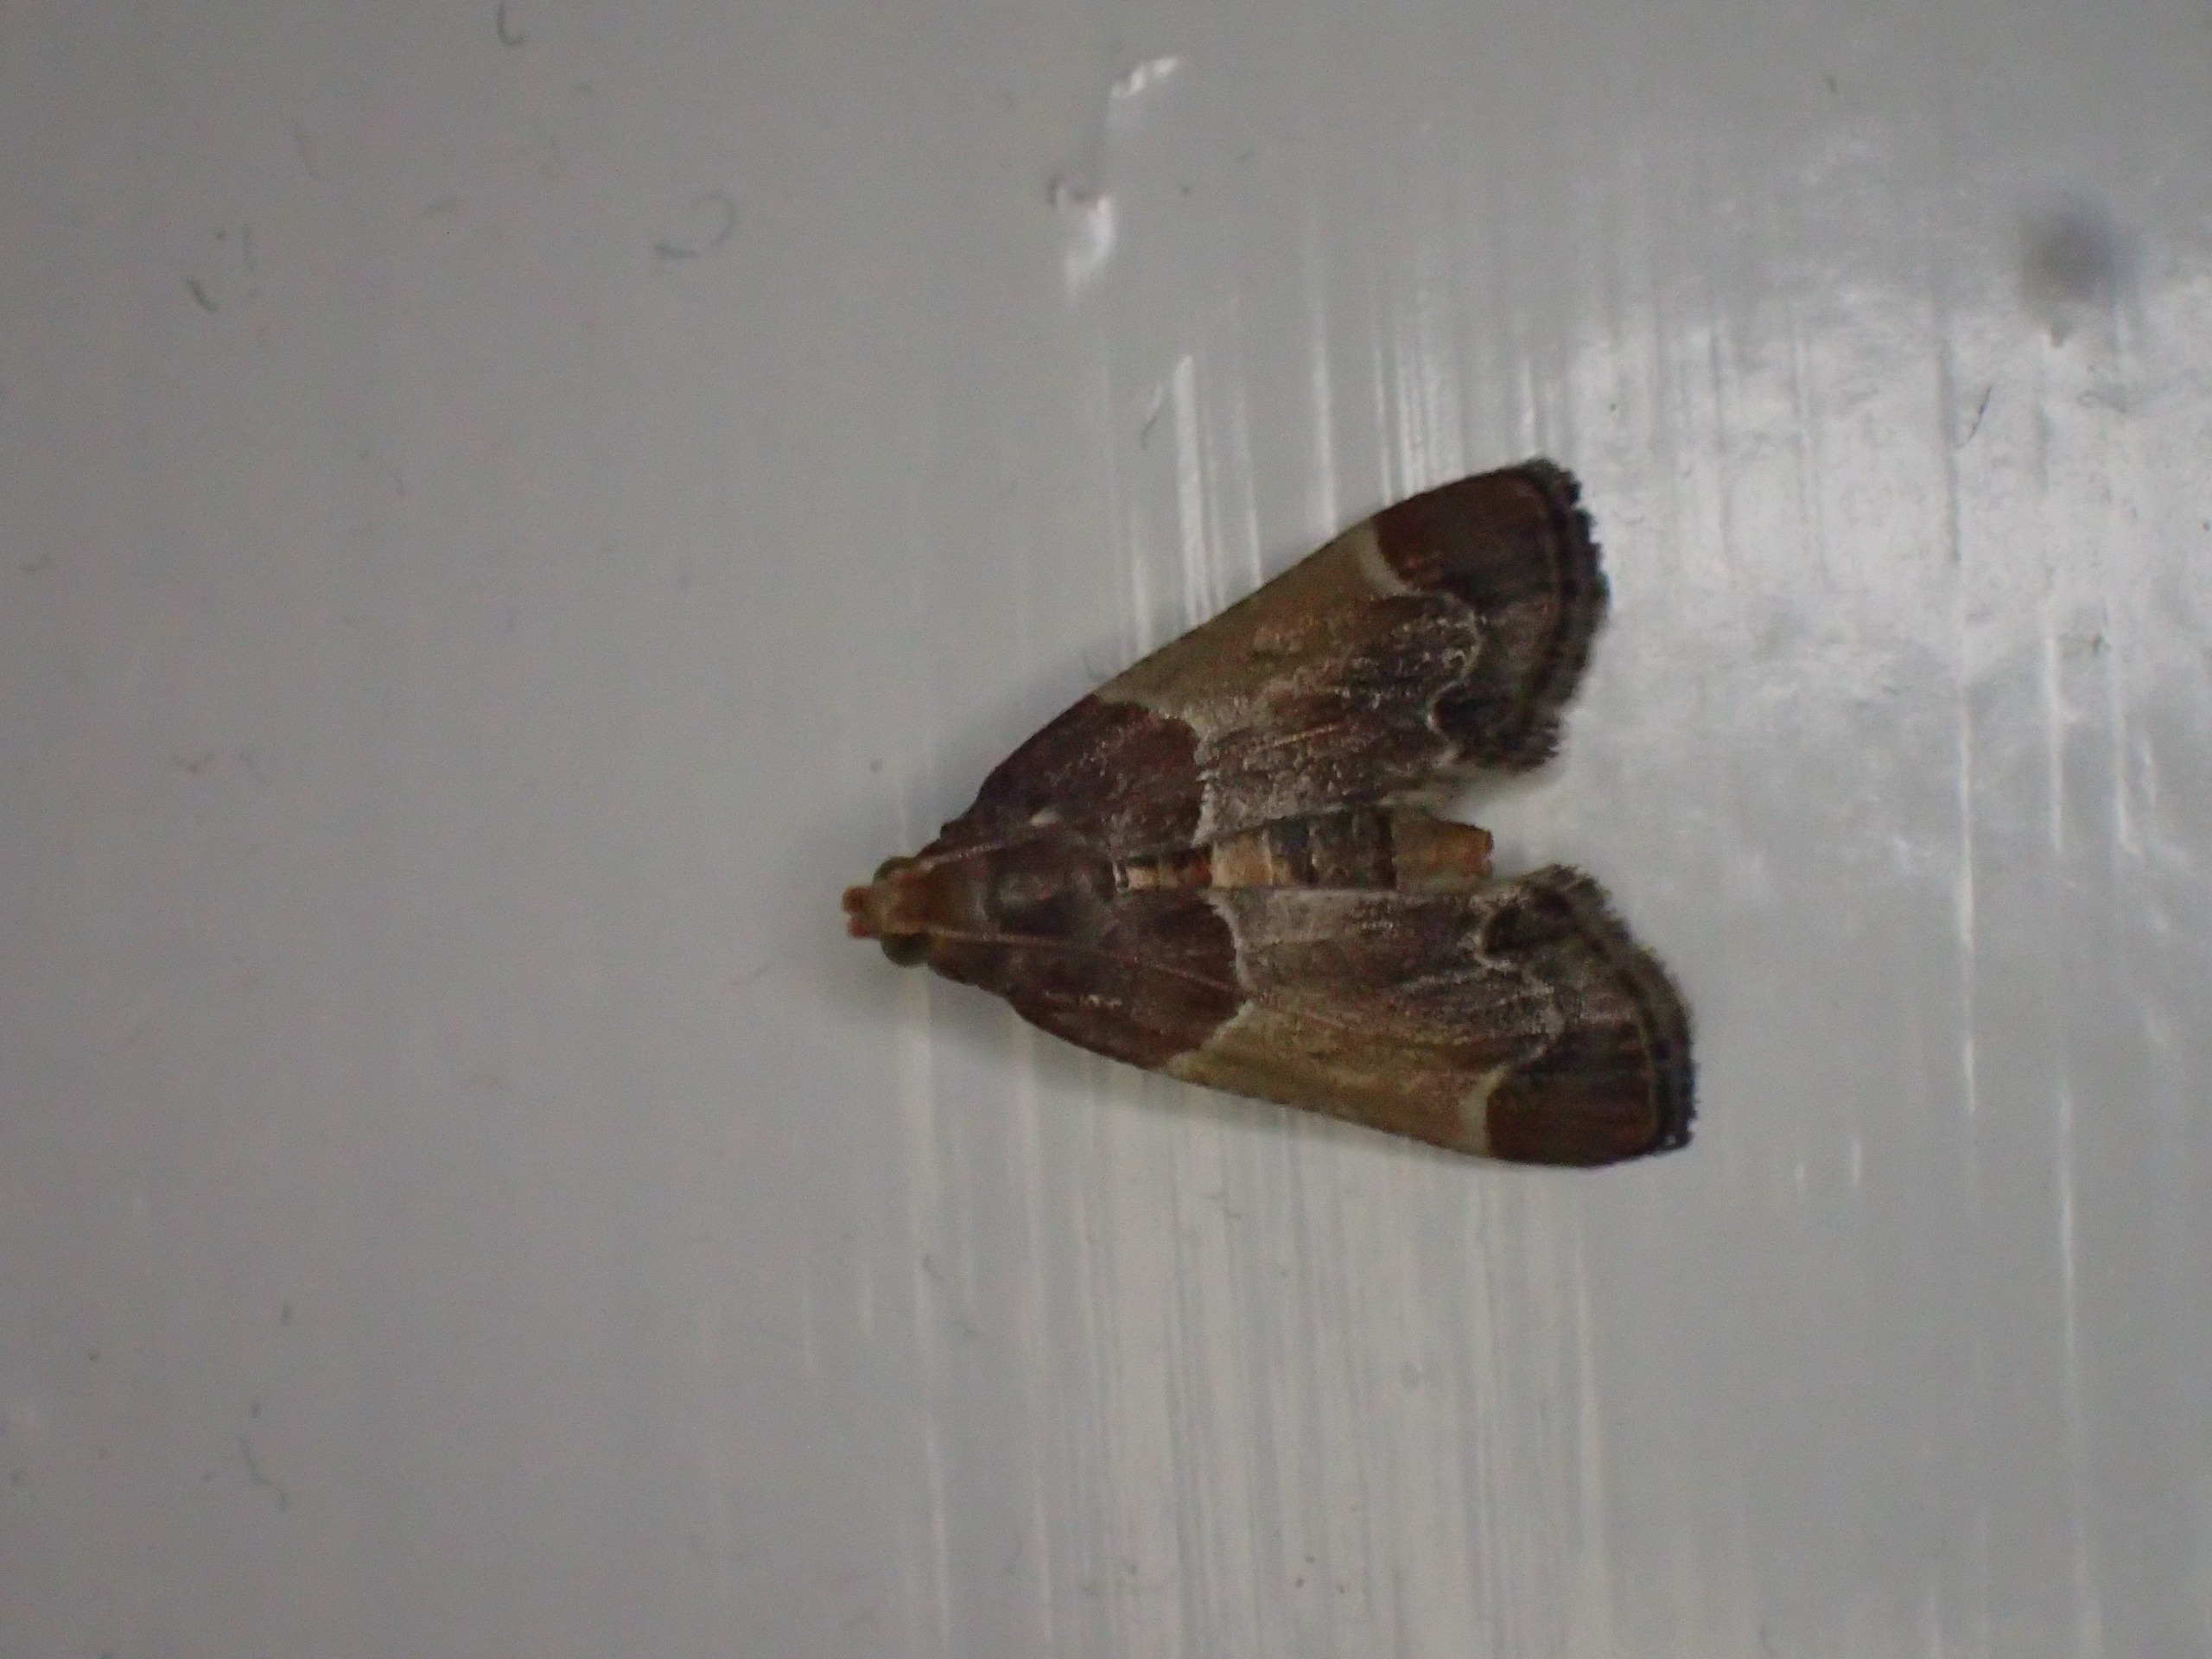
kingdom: Animalia
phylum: Arthropoda
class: Insecta
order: Lepidoptera
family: Pyralidae
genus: Pyralis
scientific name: Pyralis farinalis
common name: Stort melmøl
